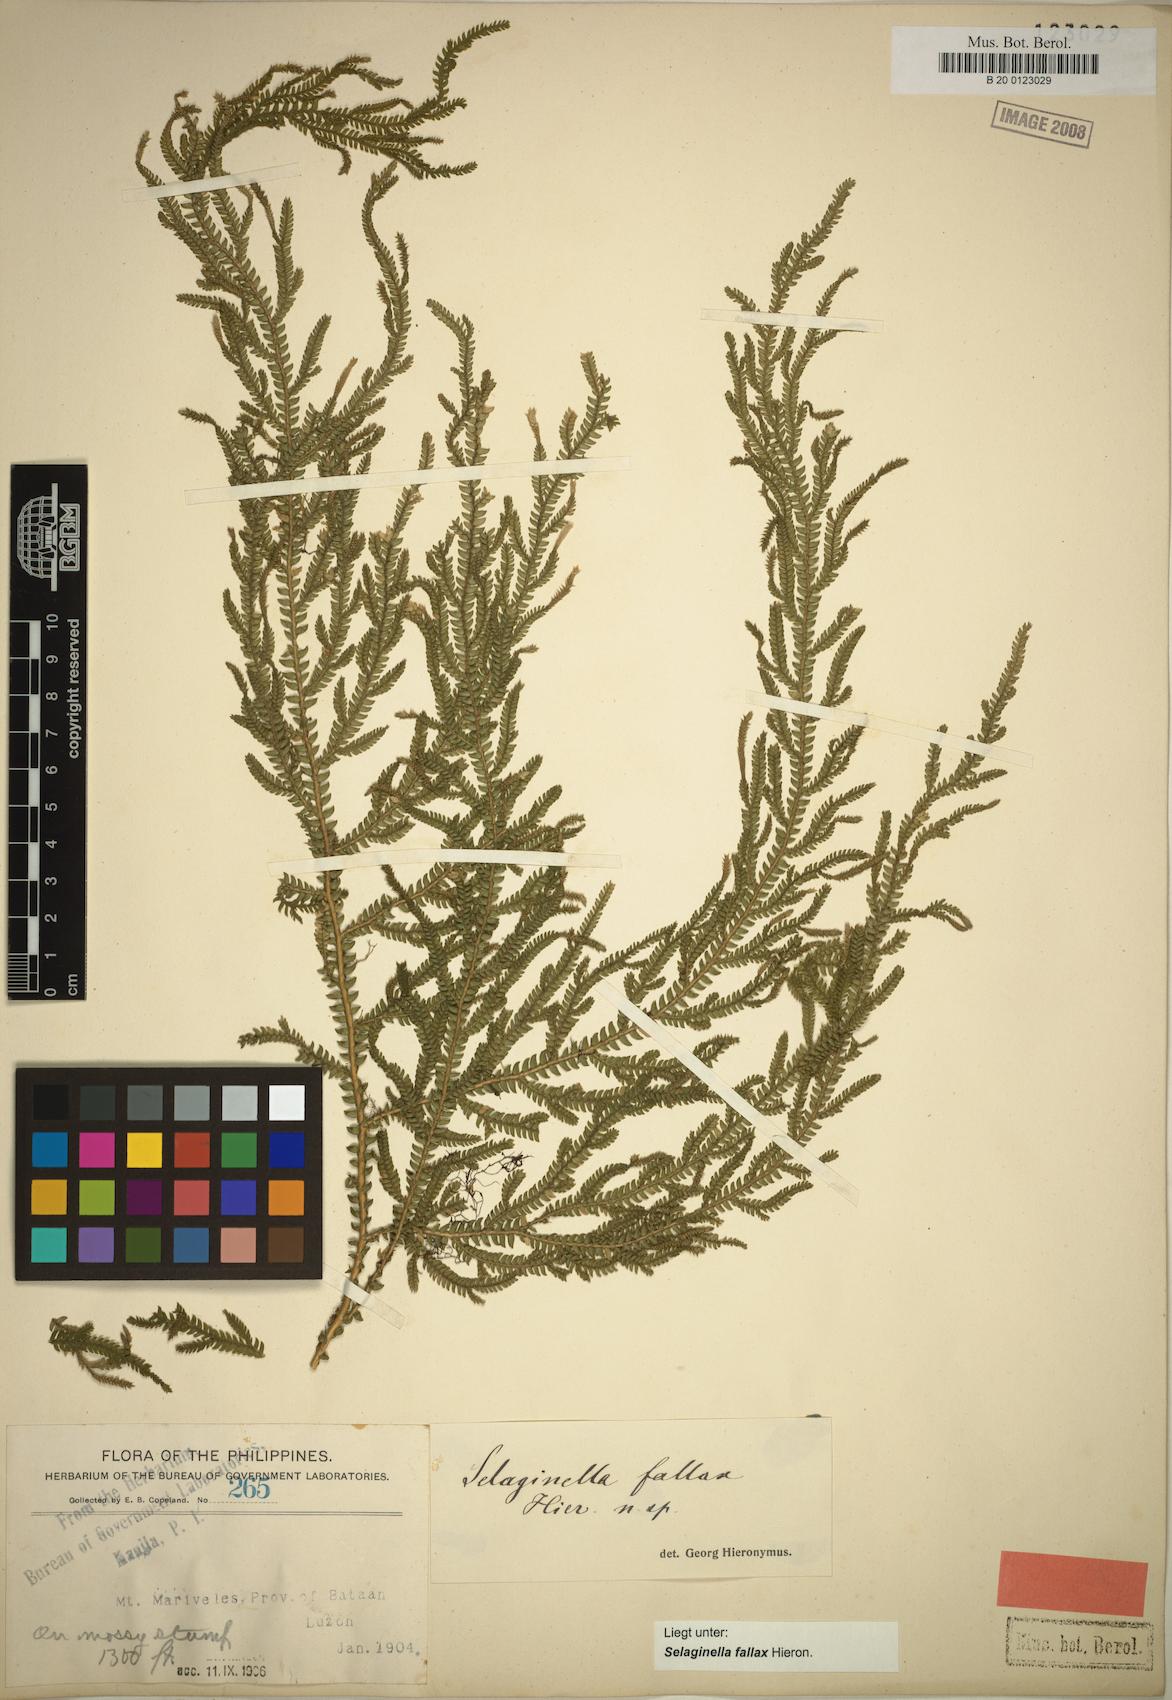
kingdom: Plantae
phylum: Tracheophyta
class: Lycopodiopsida
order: Selaginellales
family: Selaginellaceae
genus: Selaginella
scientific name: Selaginella jagorii
